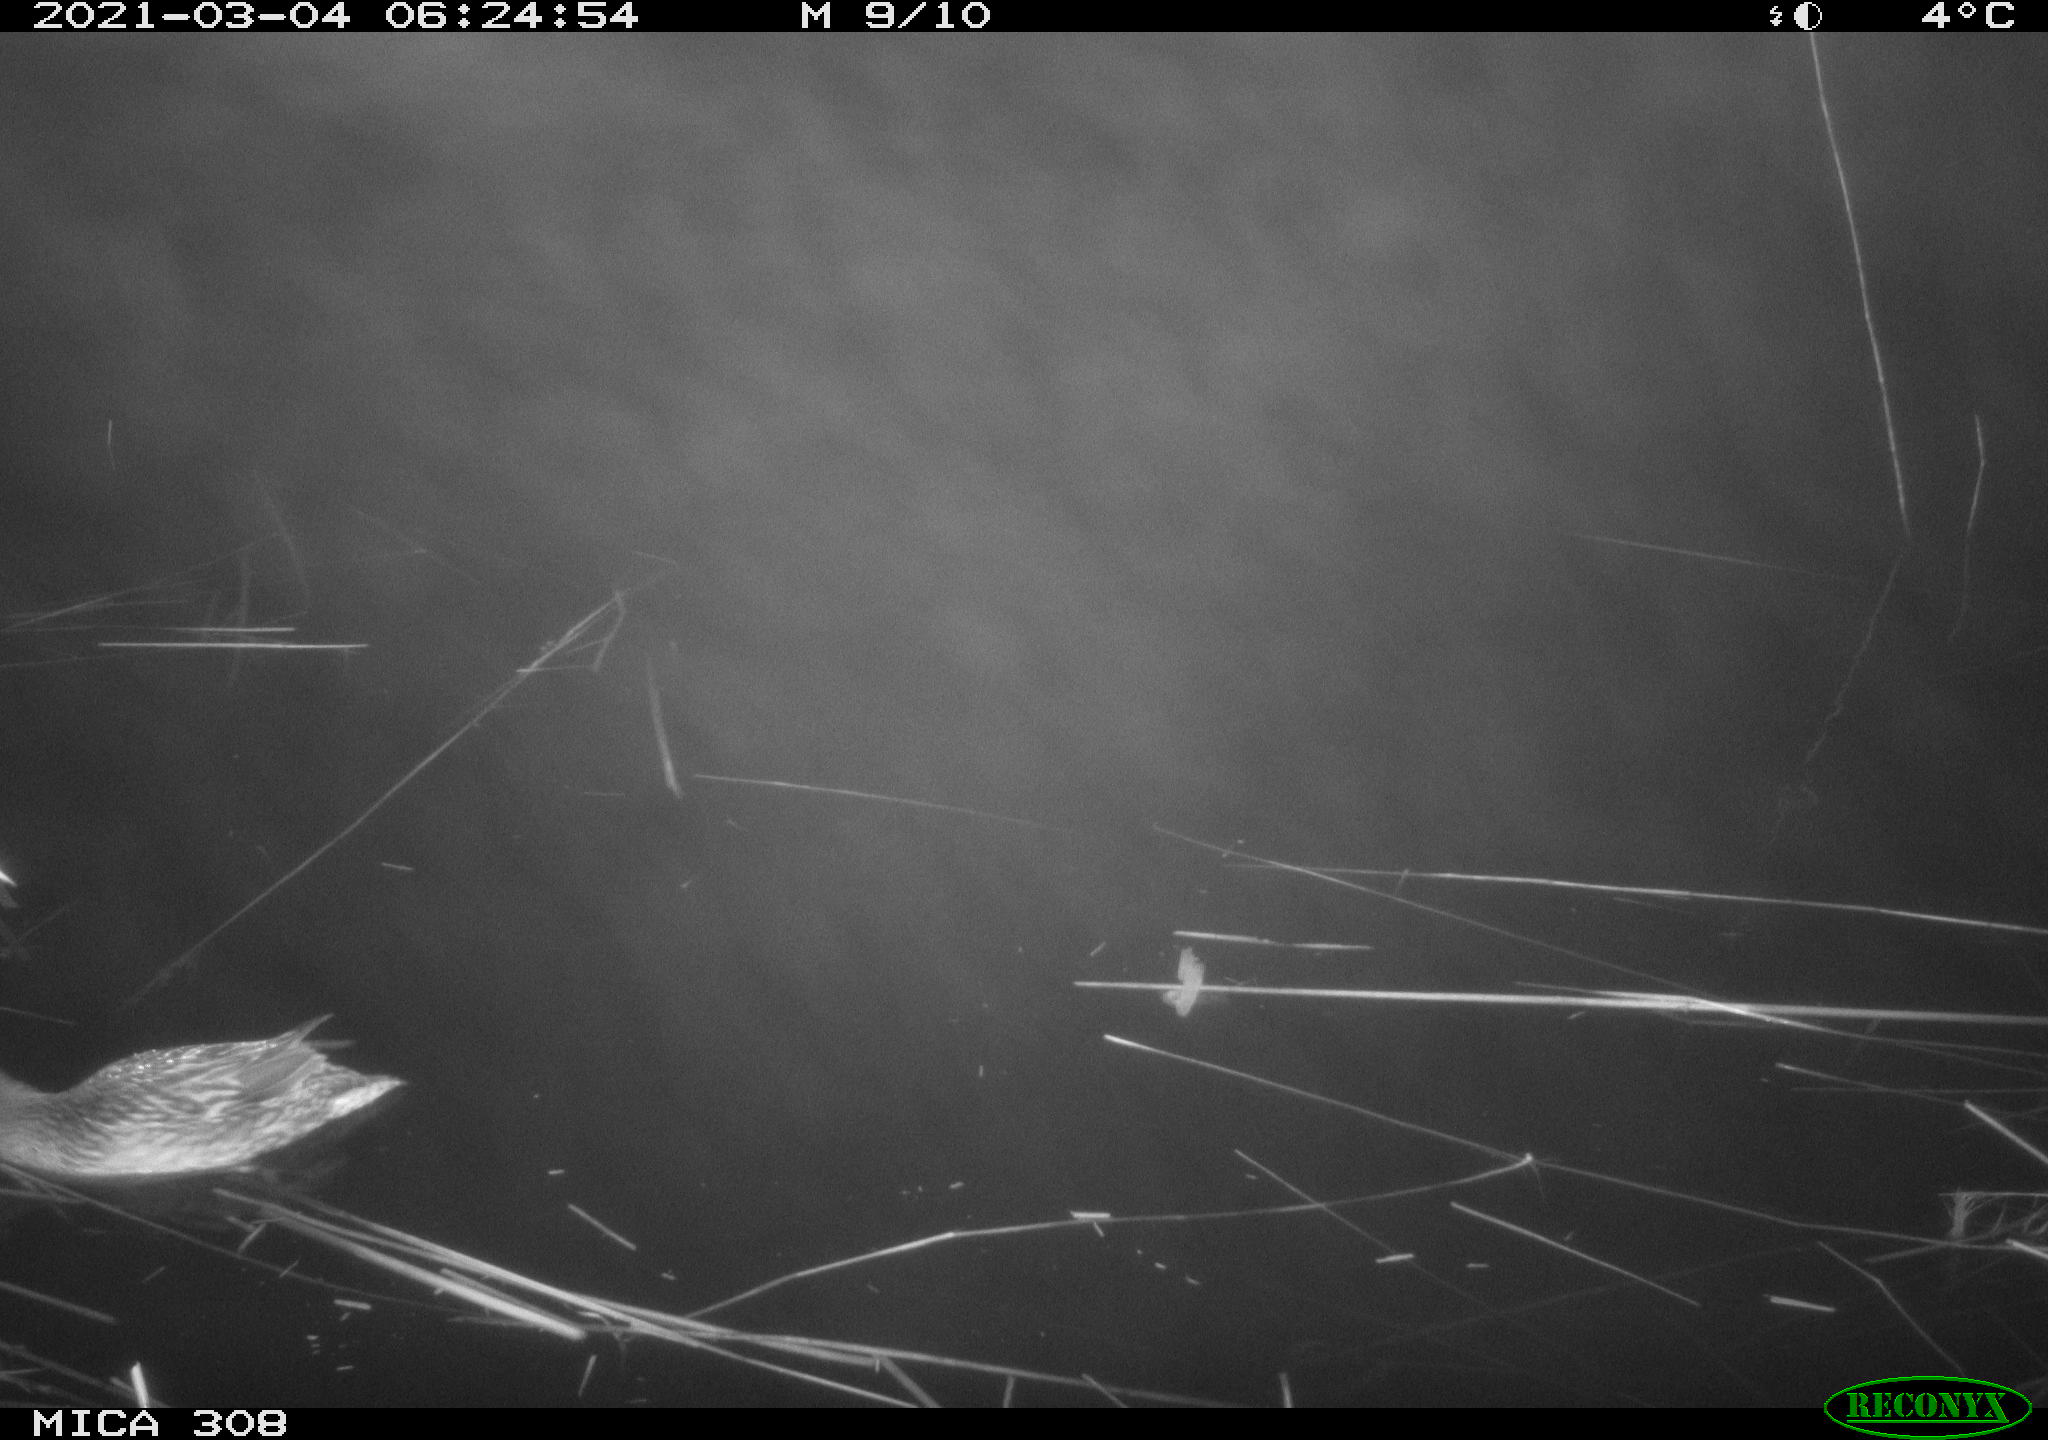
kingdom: Animalia
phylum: Chordata
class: Aves
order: Anseriformes
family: Anatidae
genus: Anas
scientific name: Anas platyrhynchos
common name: Mallard
